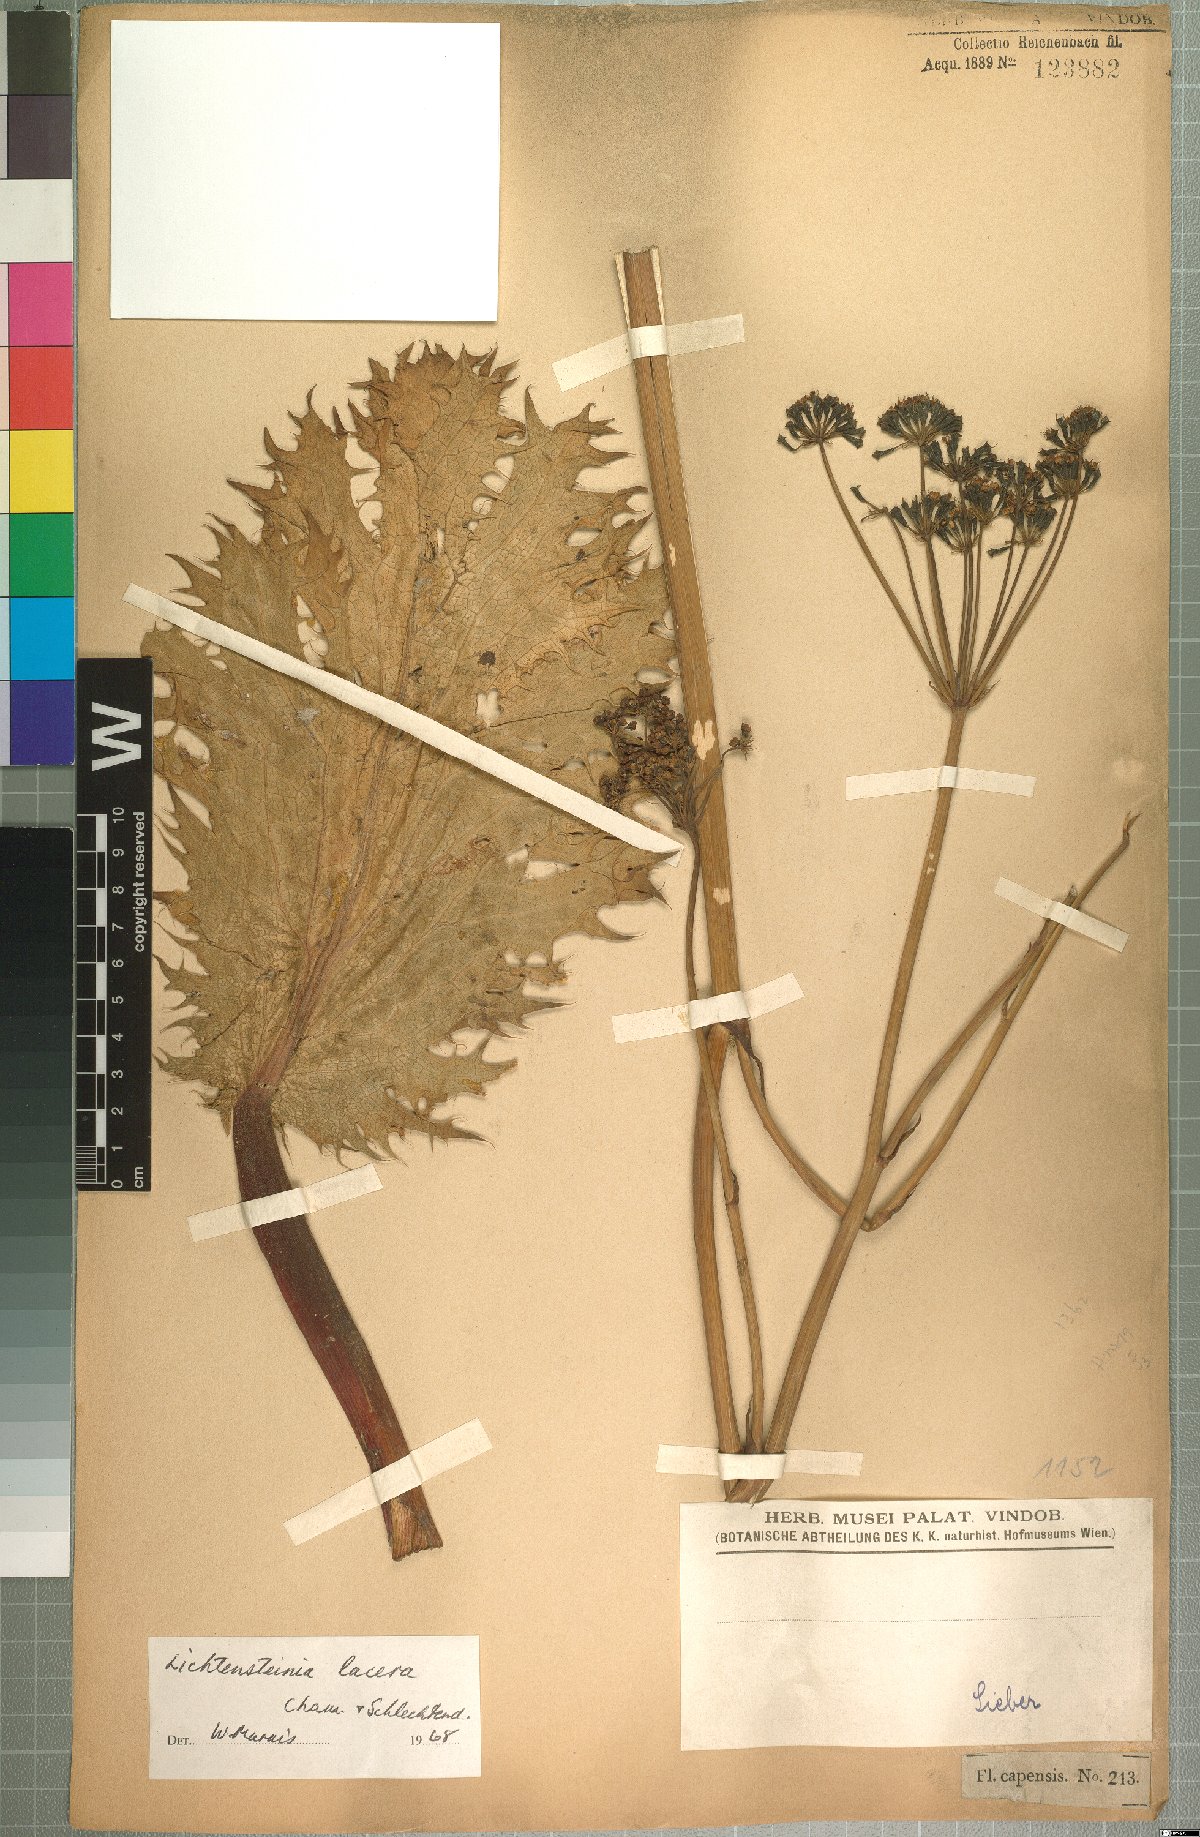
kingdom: Plantae
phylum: Tracheophyta
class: Magnoliopsida
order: Apiales
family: Apiaceae
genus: Lichtensteinia
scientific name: Lichtensteinia lacera
